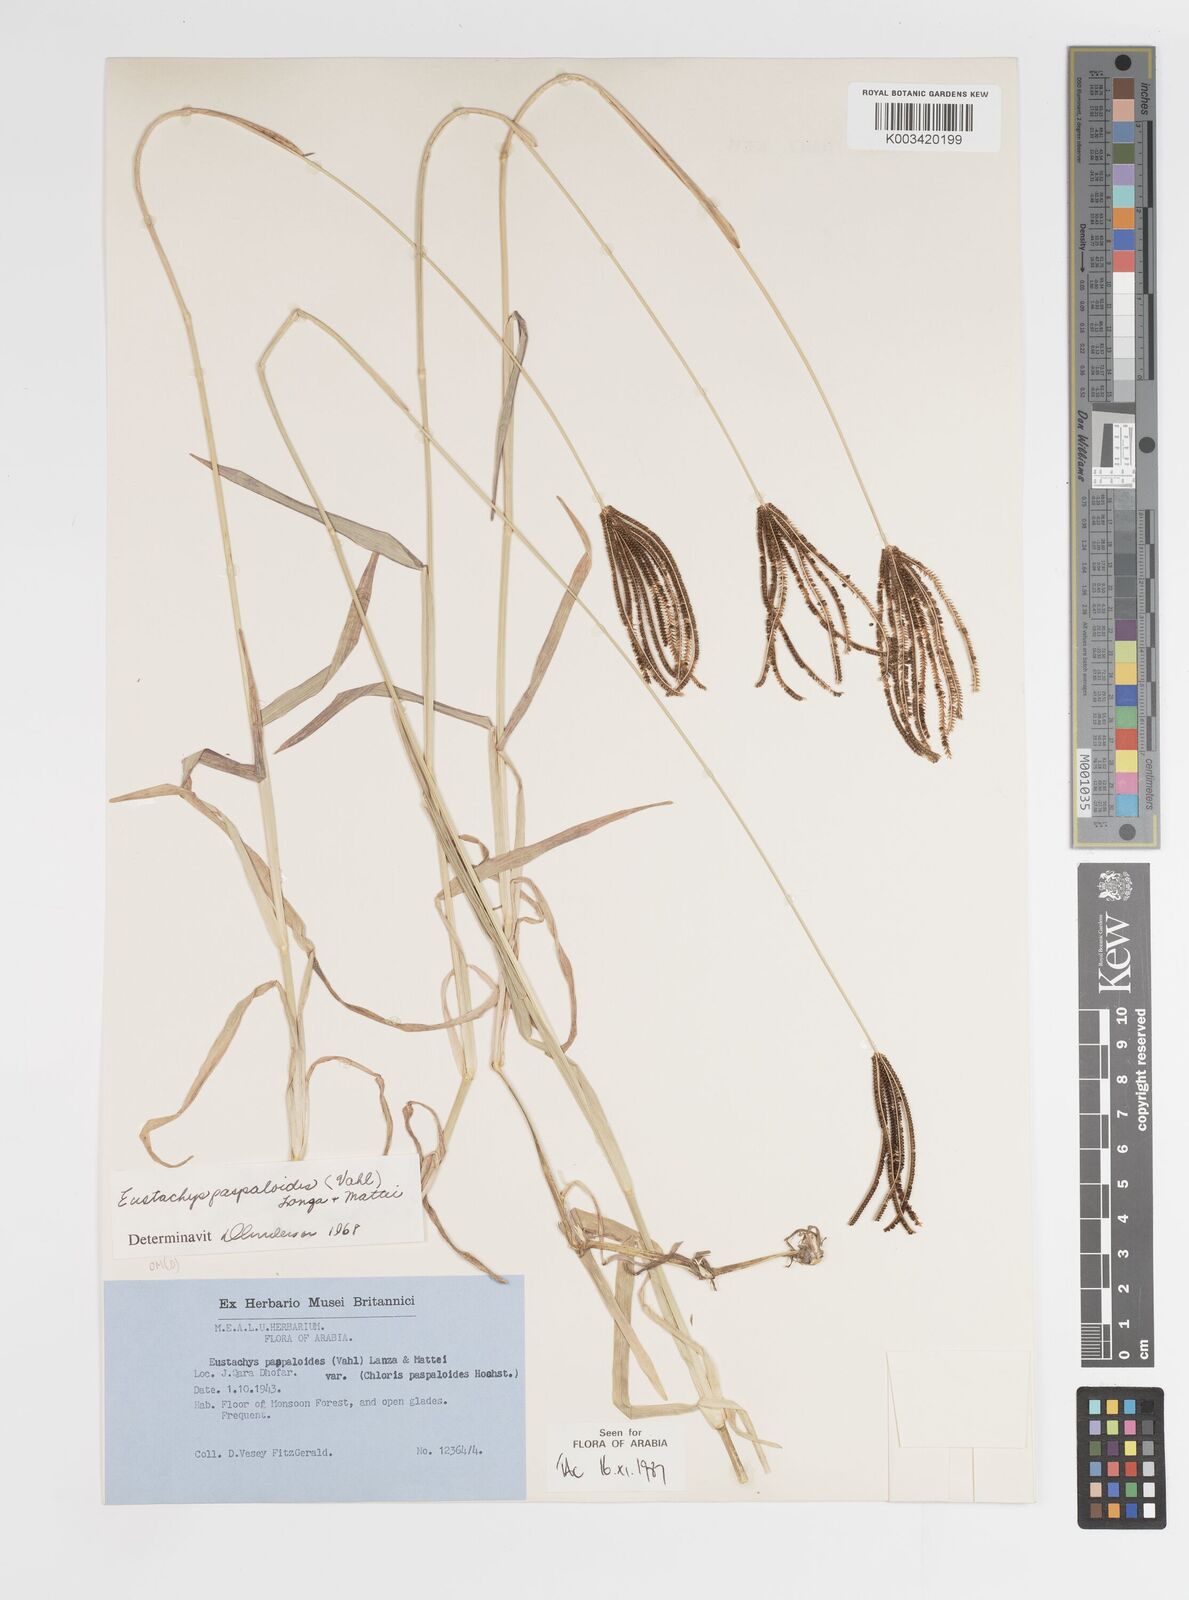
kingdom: Plantae
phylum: Tracheophyta
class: Liliopsida
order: Poales
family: Poaceae
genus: Eustachys
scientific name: Eustachys paspaloides
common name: Caribbean fingergrass
